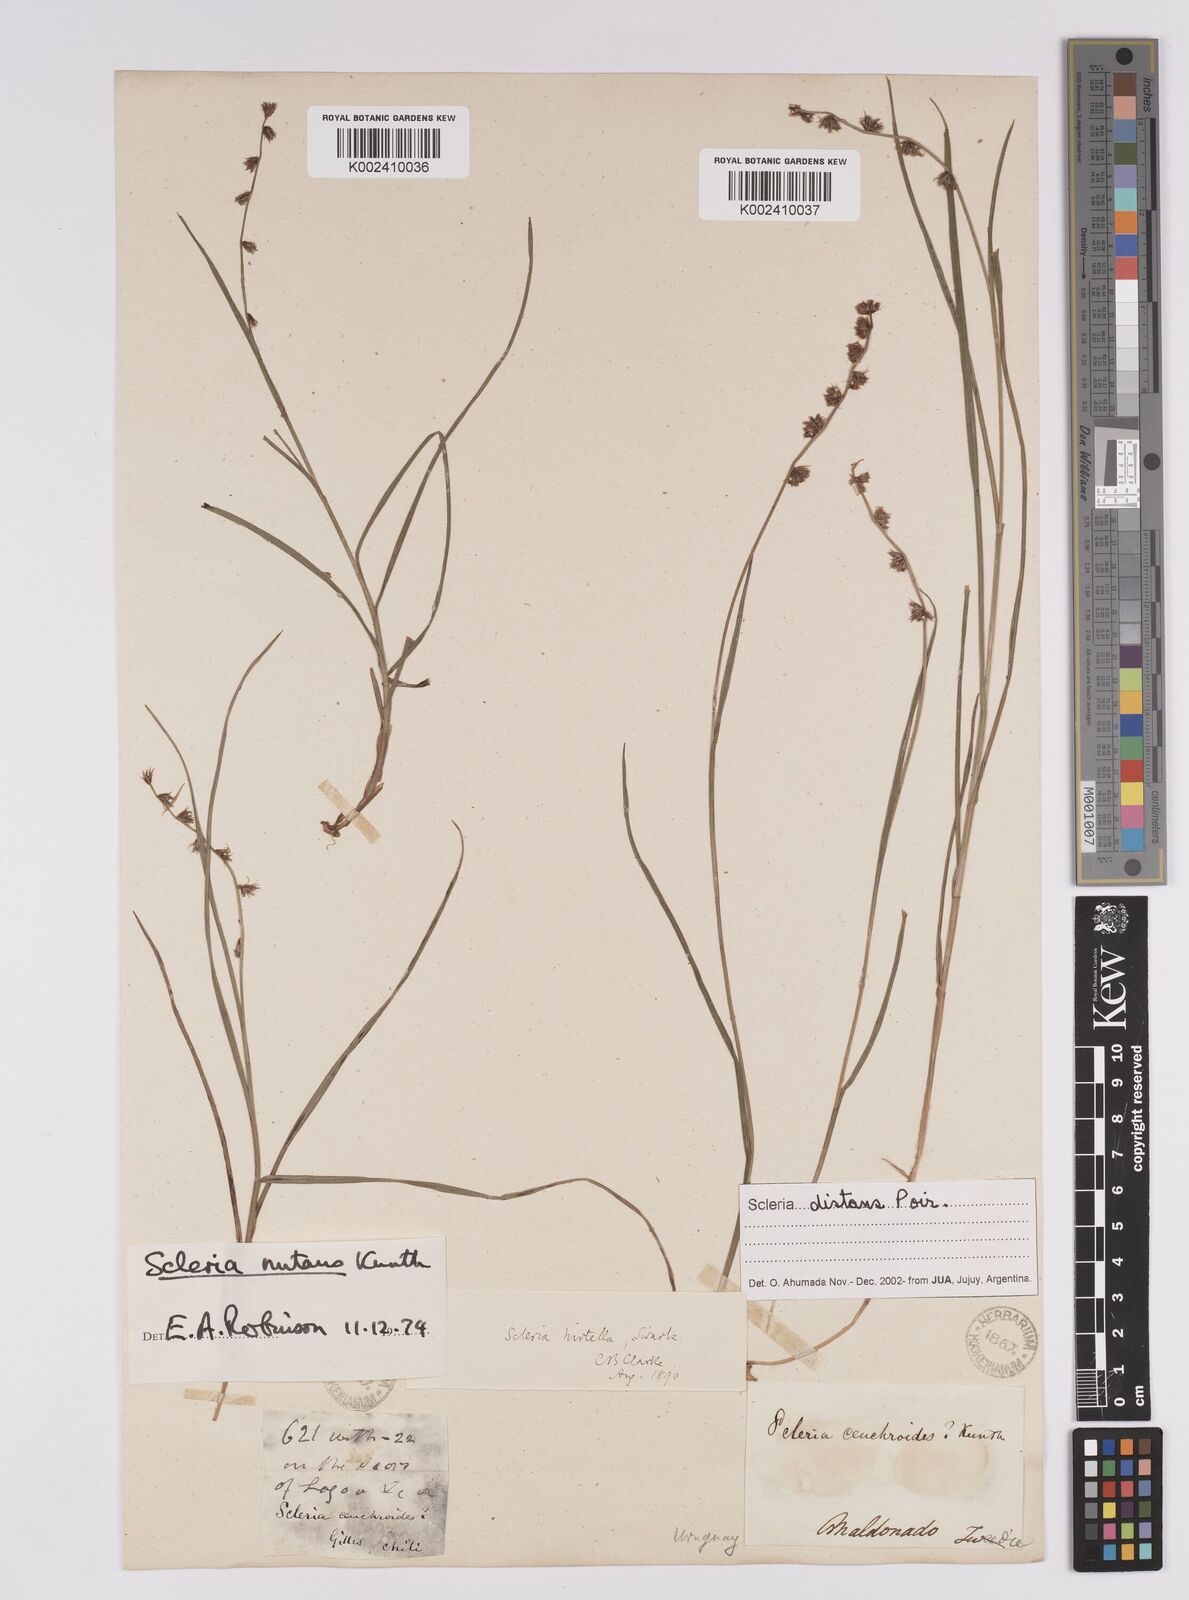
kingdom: Plantae
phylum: Tracheophyta
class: Liliopsida
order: Poales
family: Cyperaceae
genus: Scleria
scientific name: Scleria distans
